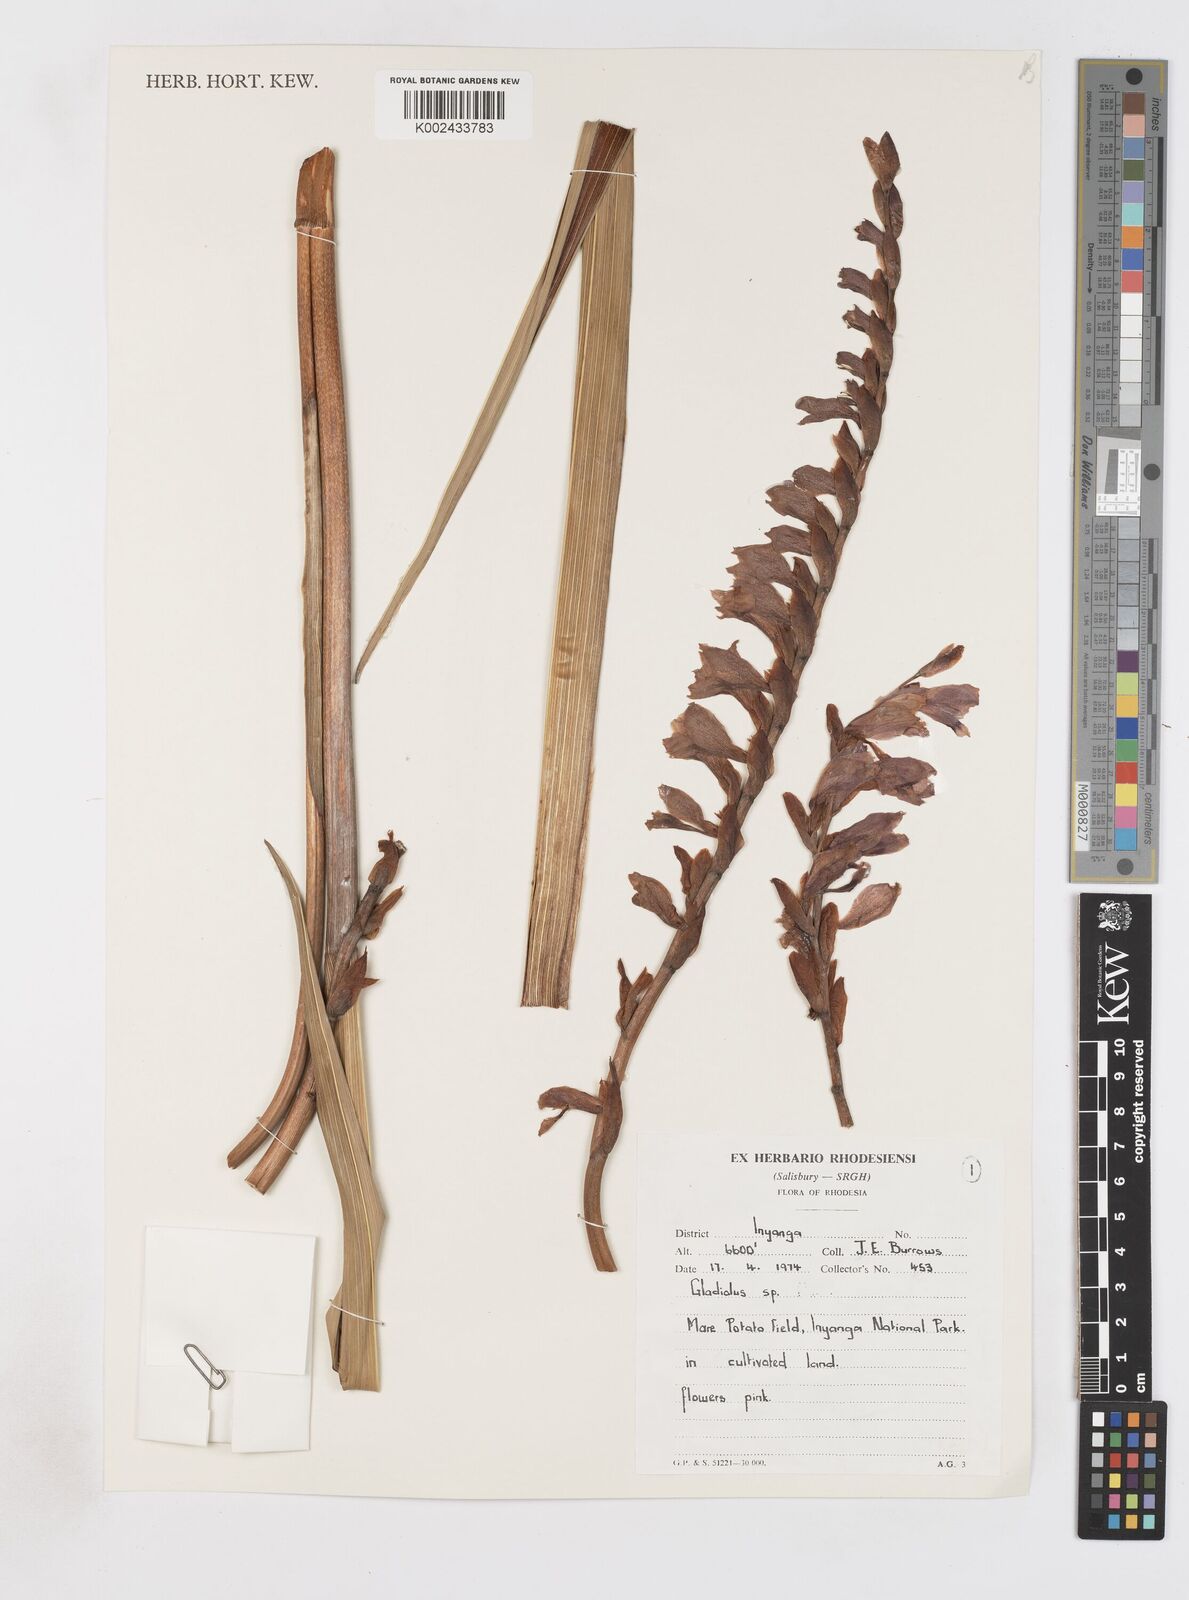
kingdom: Plantae
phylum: Tracheophyta
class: Liliopsida
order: Asparagales
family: Iridaceae
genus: Gladiolus
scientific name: Gladiolus crassifolius
